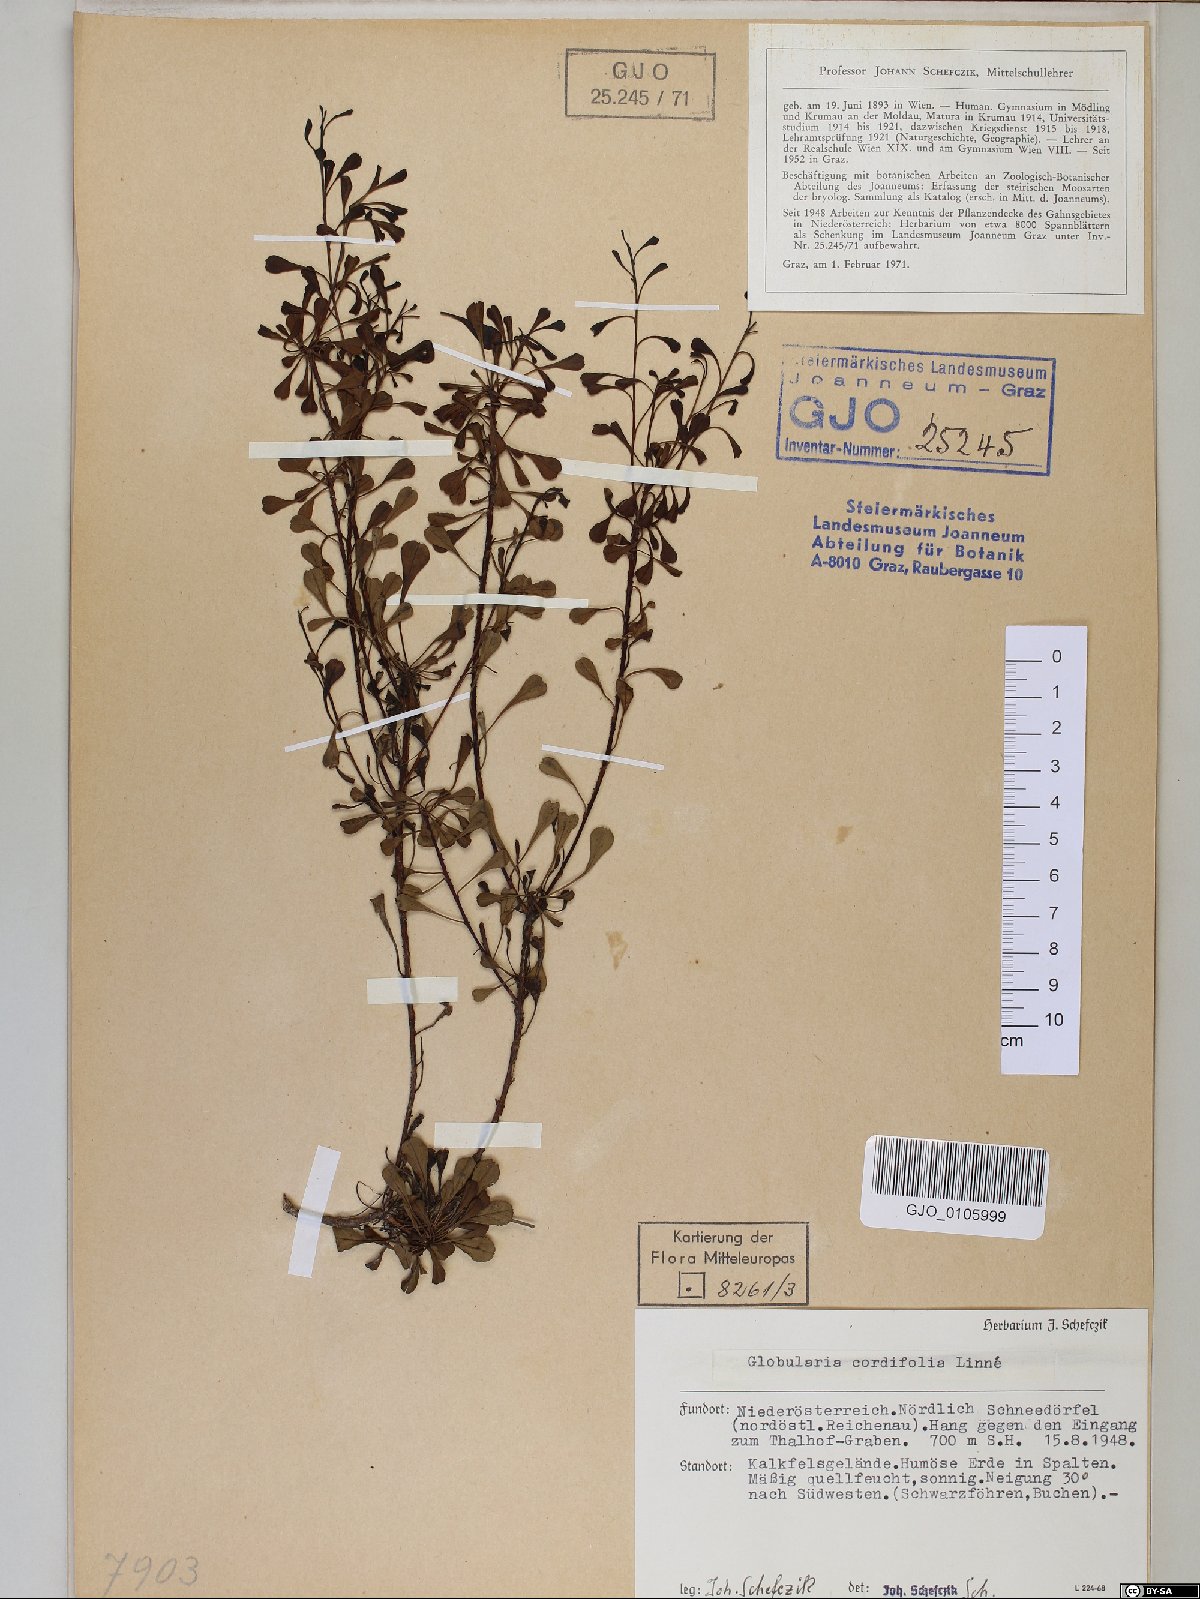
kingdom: Plantae
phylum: Tracheophyta
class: Magnoliopsida
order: Lamiales
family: Plantaginaceae
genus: Globularia
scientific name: Globularia cordifolia
